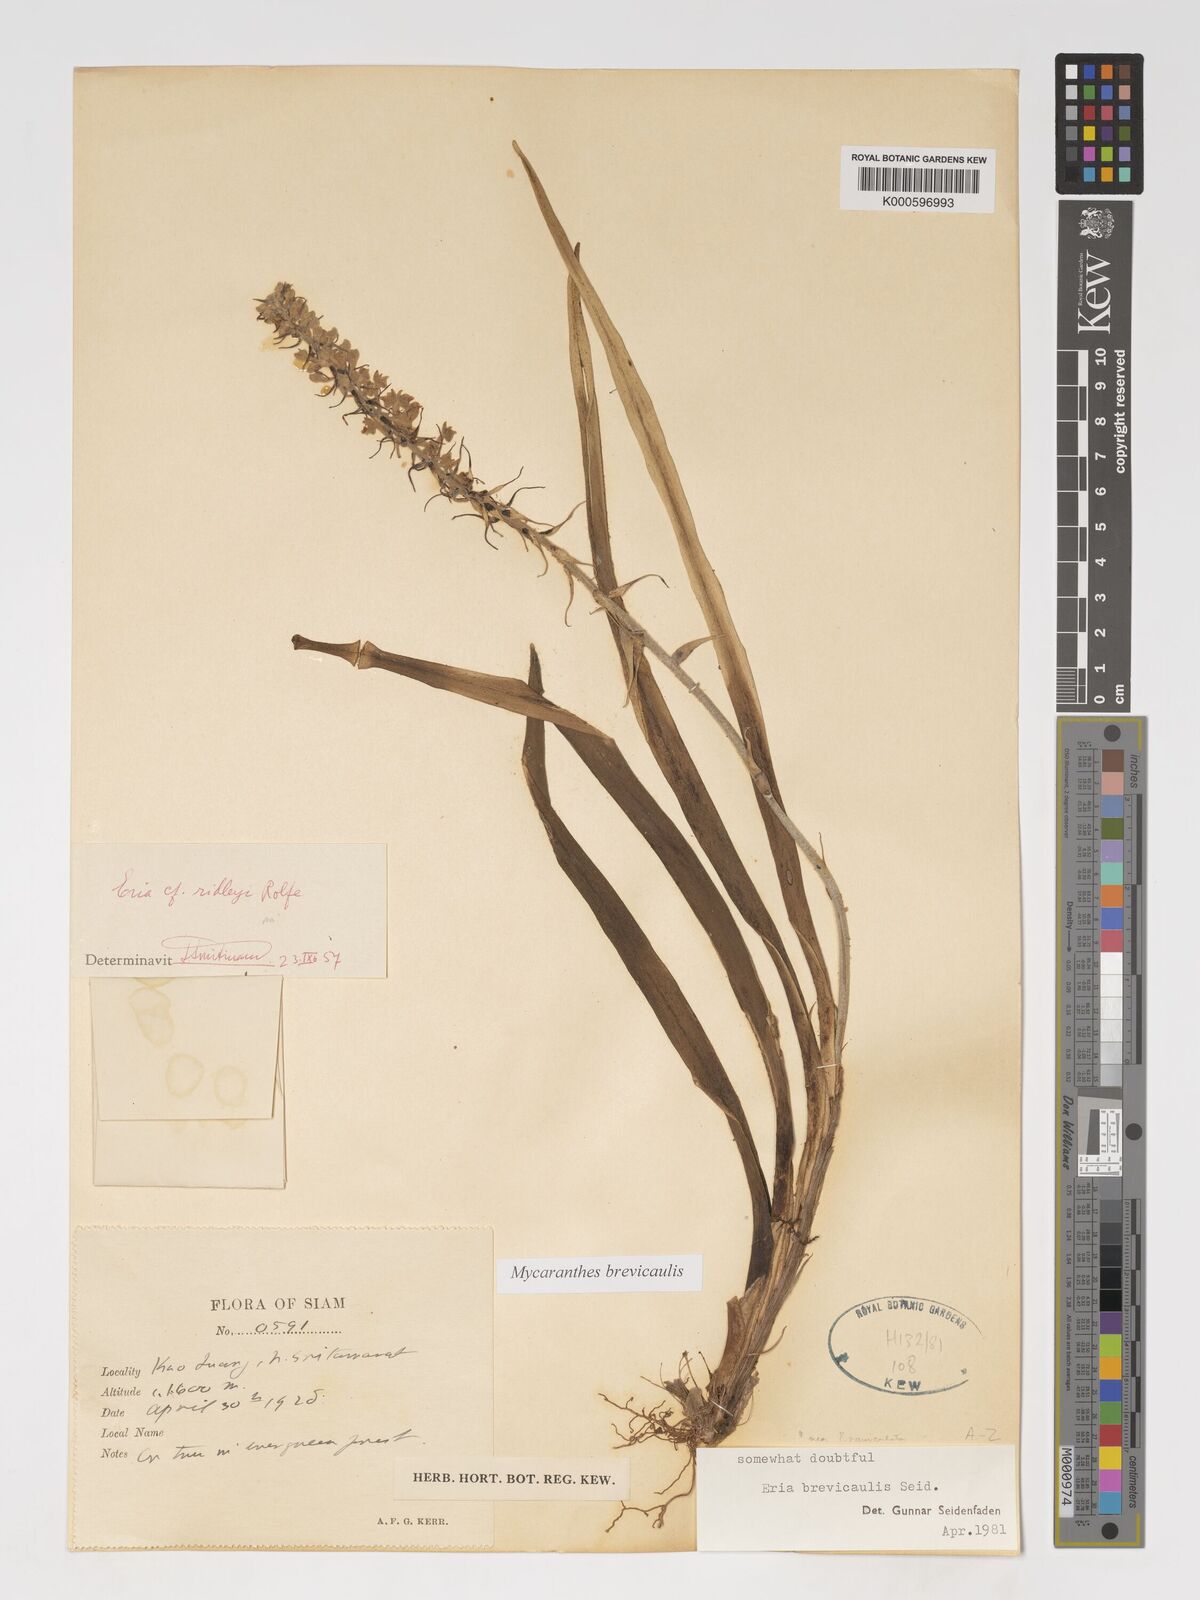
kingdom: Plantae
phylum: Tracheophyta
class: Liliopsida
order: Asparagales
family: Orchidaceae
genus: Mycaranthes
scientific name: Mycaranthes brevicaulis
